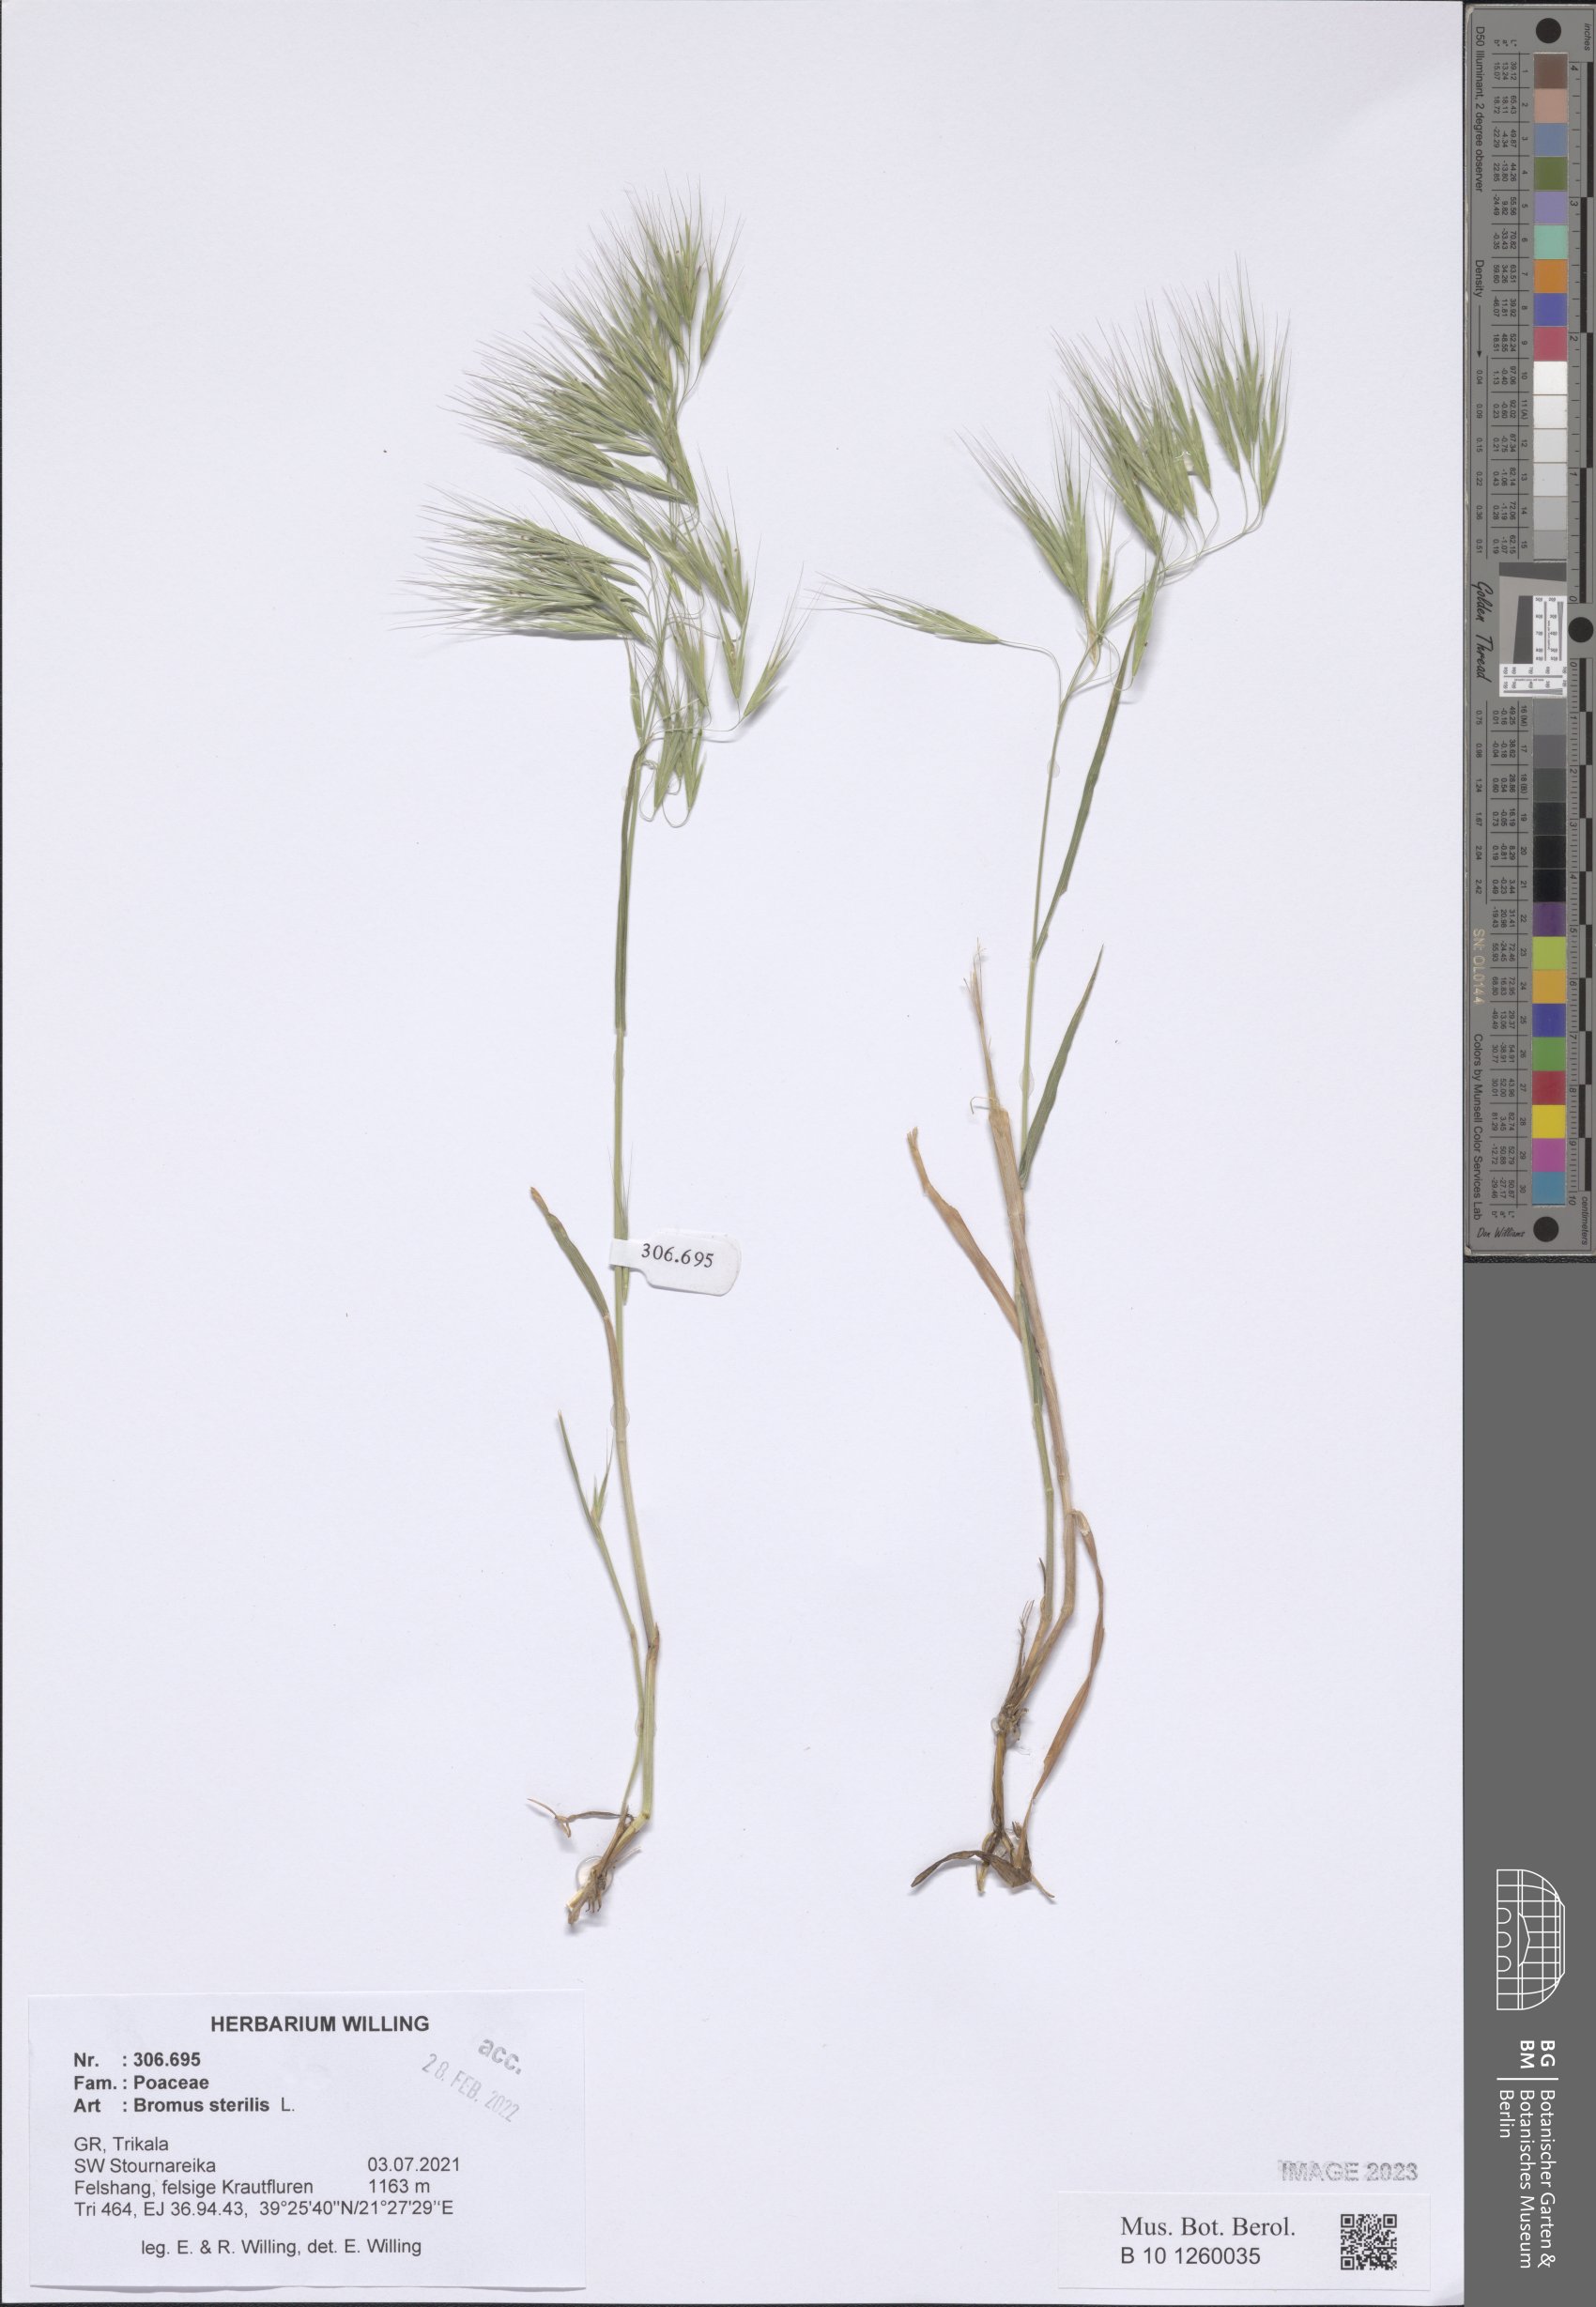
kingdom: Plantae
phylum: Tracheophyta
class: Liliopsida
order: Poales
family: Poaceae
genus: Bromus
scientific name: Bromus sterilis
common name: Poverty brome
